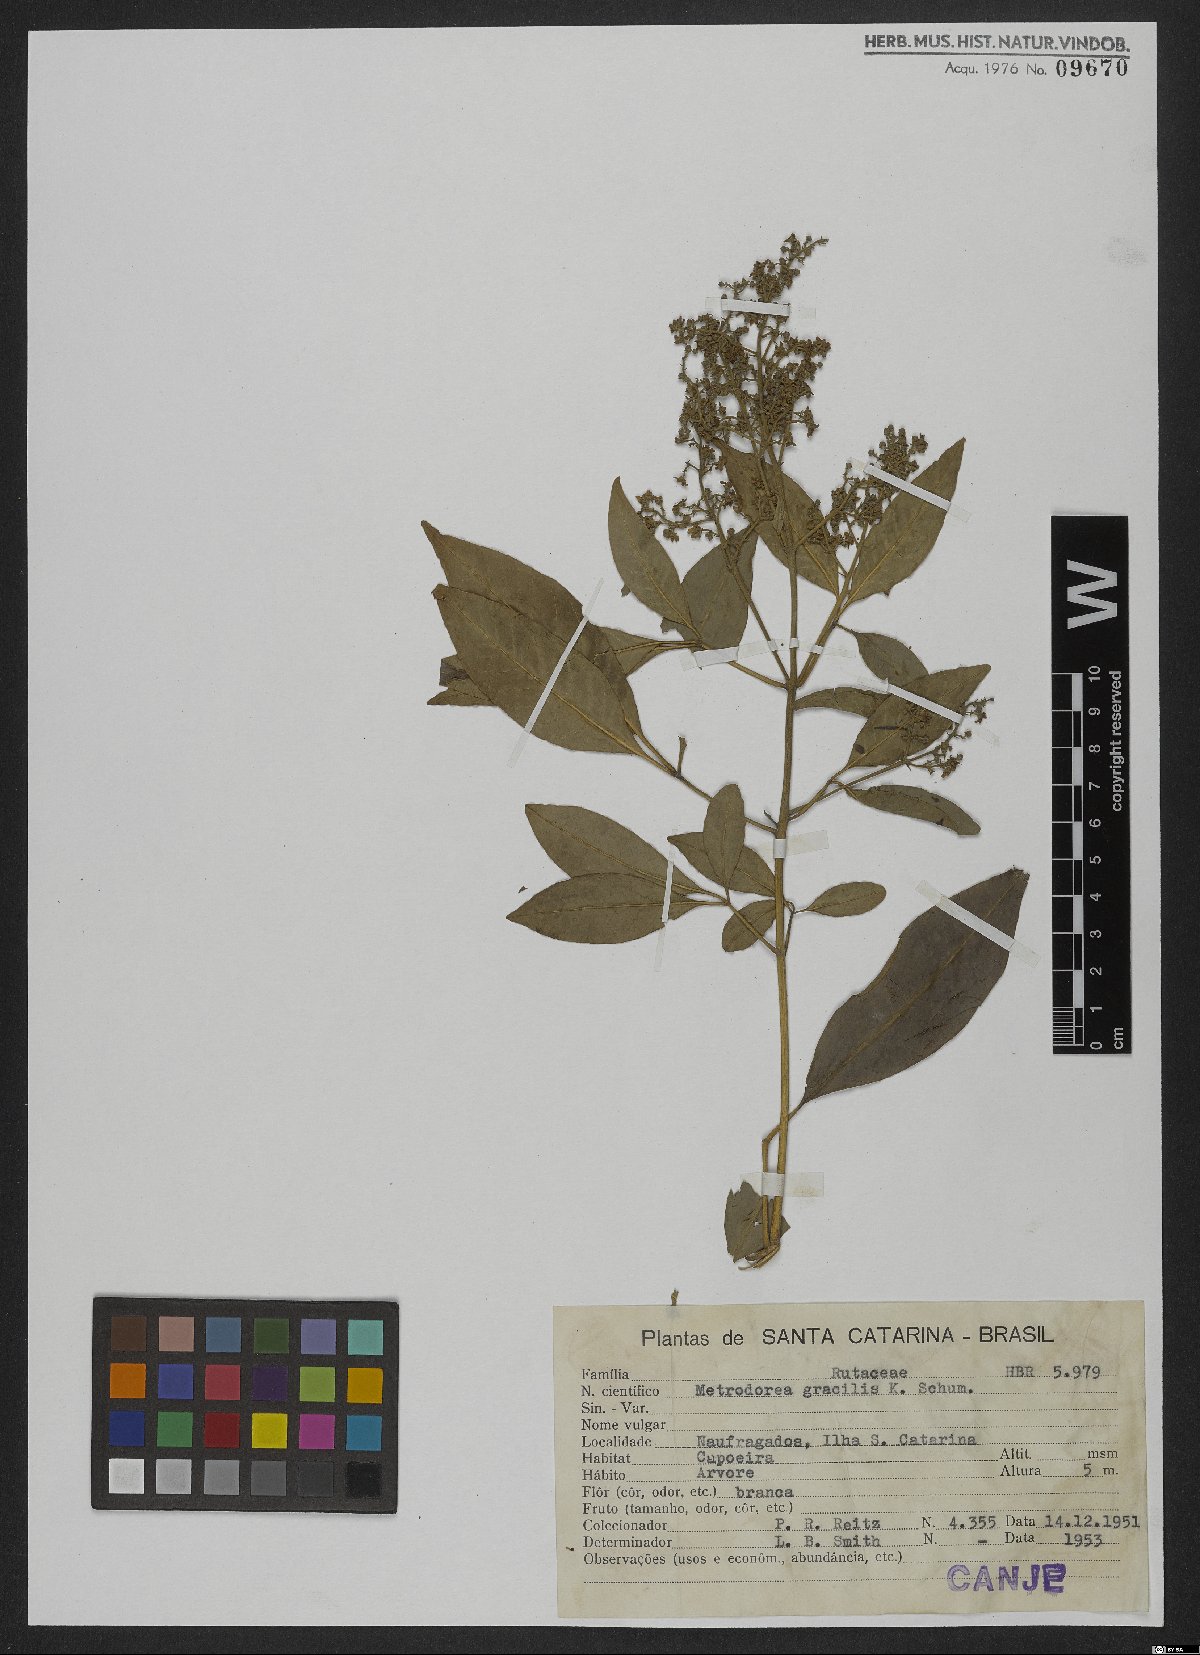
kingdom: Plantae
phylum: Tracheophyta
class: Magnoliopsida
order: Sapindales
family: Rutaceae
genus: Esenbeckia
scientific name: Esenbeckia febrifuga
